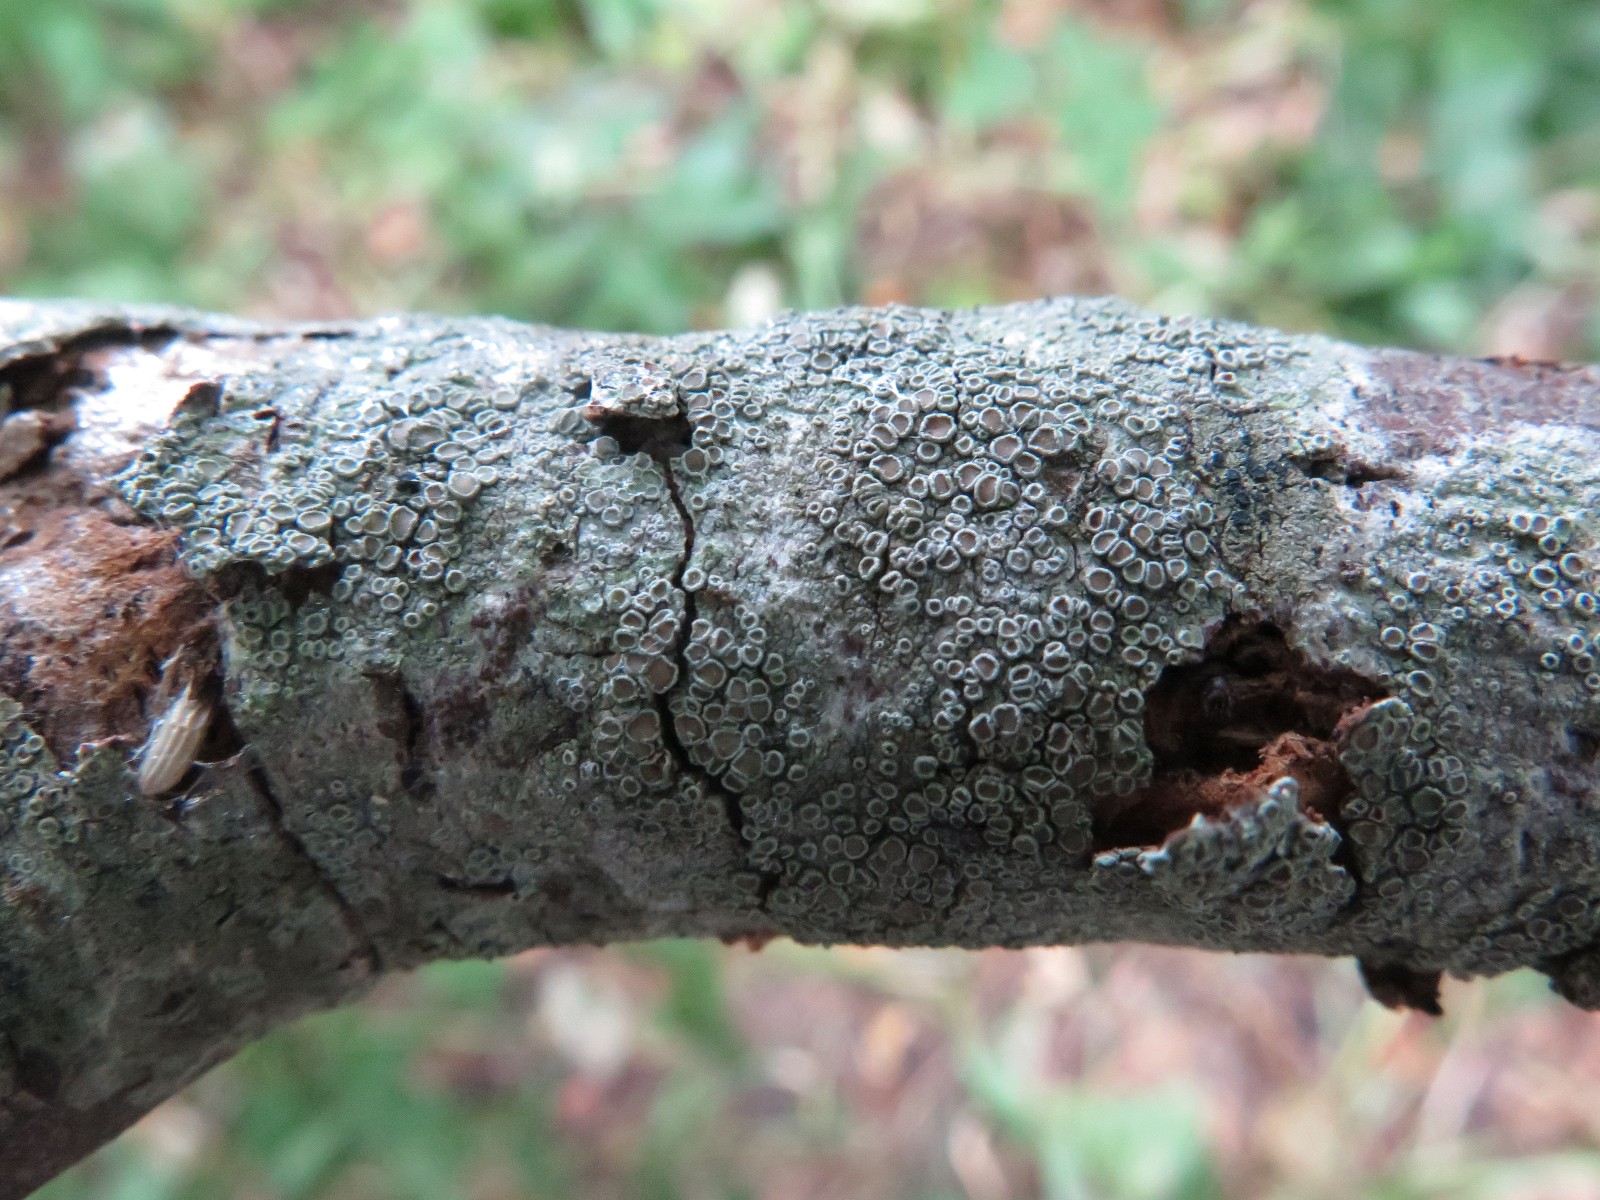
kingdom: Fungi
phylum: Ascomycota
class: Lecanoromycetes
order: Lecanorales
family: Lecanoraceae
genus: Lecanora
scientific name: Lecanora chlarotera
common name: brun kantskivelav
